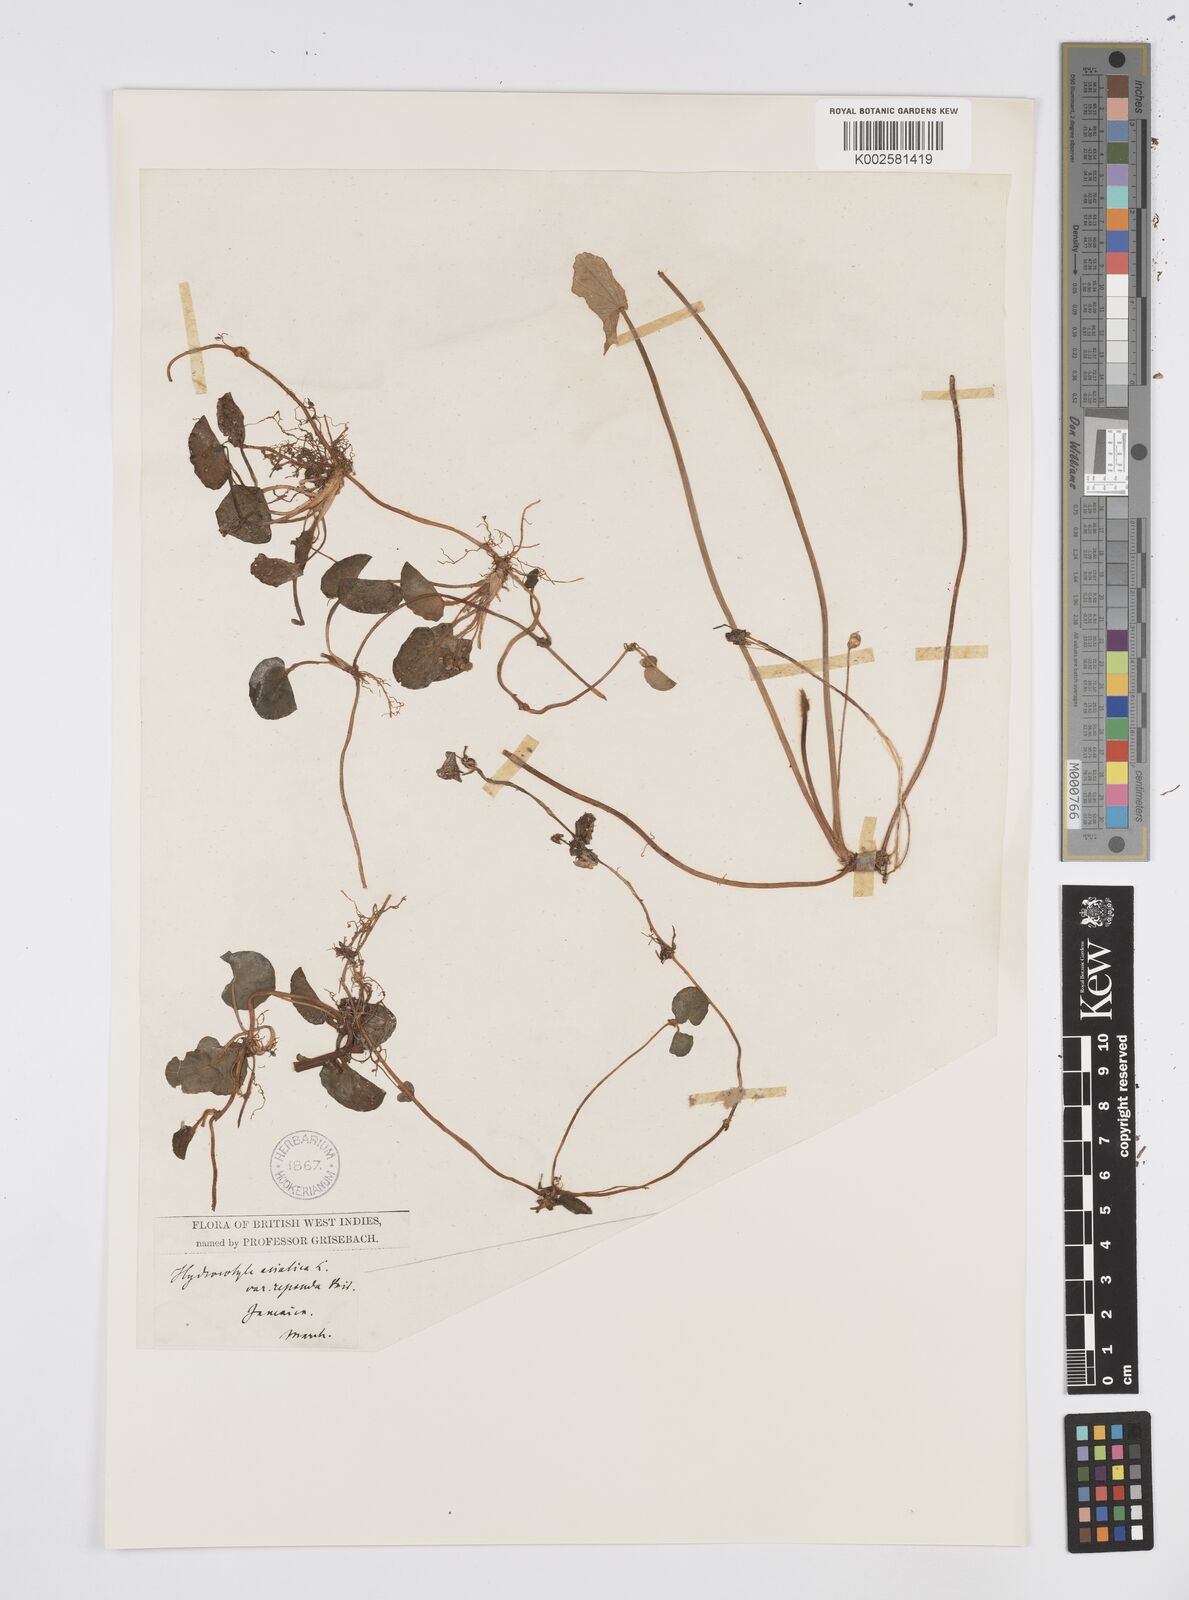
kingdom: Plantae
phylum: Tracheophyta
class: Magnoliopsida
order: Apiales
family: Apiaceae
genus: Centella
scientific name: Centella asiatica
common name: Spadeleaf
